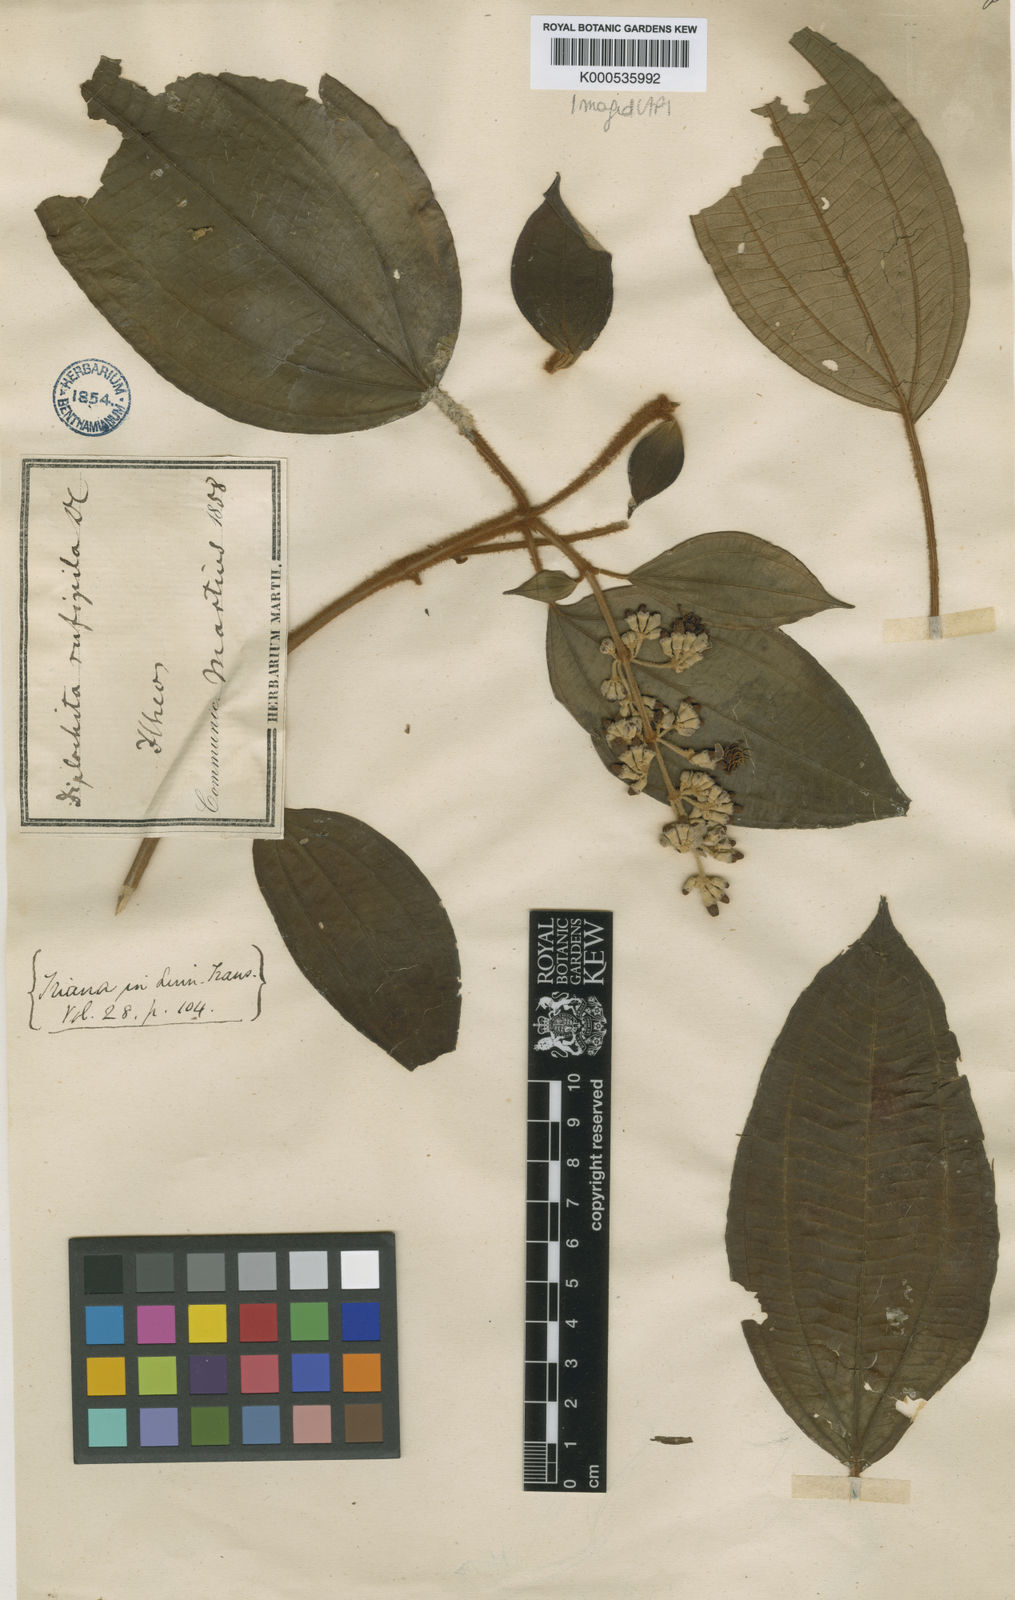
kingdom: Plantae
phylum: Tracheophyta
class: Magnoliopsida
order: Myrtales
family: Melastomataceae
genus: Miconia
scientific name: Miconia rufipila
